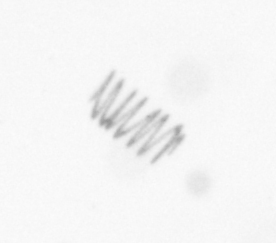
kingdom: Chromista
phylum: Ochrophyta
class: Bacillariophyceae
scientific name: Bacillariophyceae
